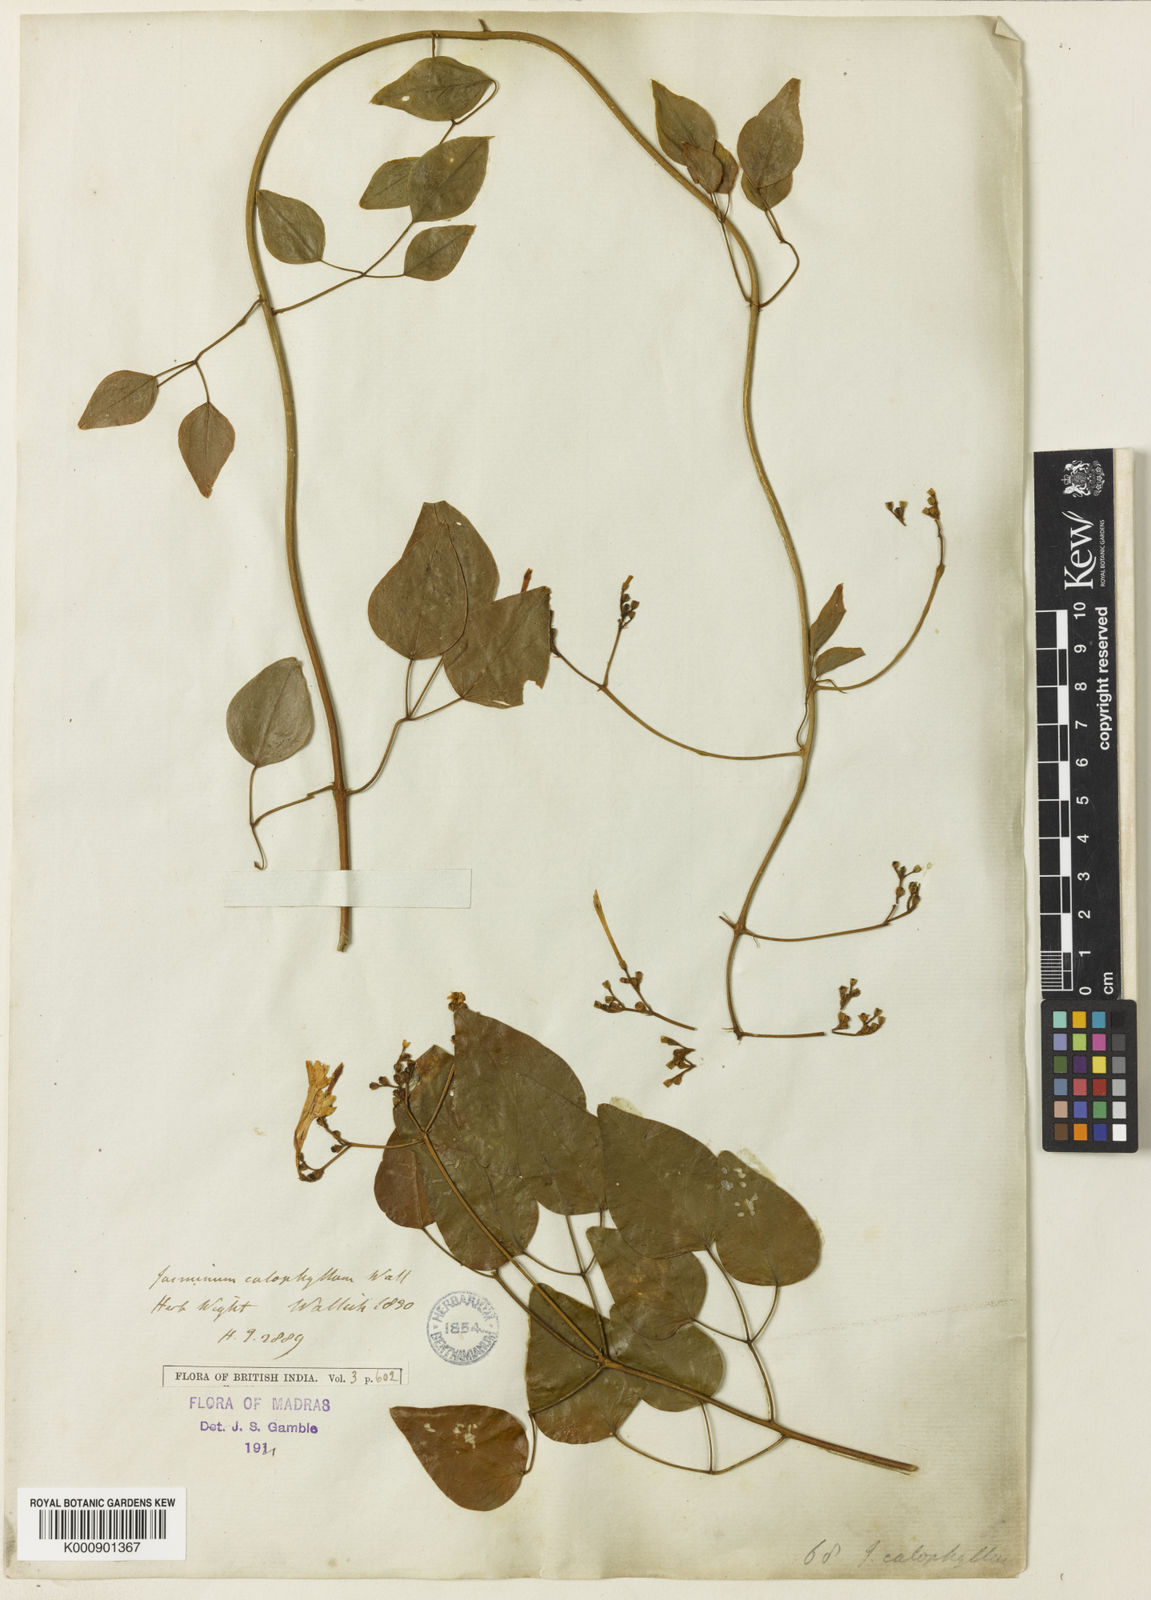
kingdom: Plantae
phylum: Tracheophyta
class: Magnoliopsida
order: Lamiales
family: Oleaceae
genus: Jasminum
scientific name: Jasminum
